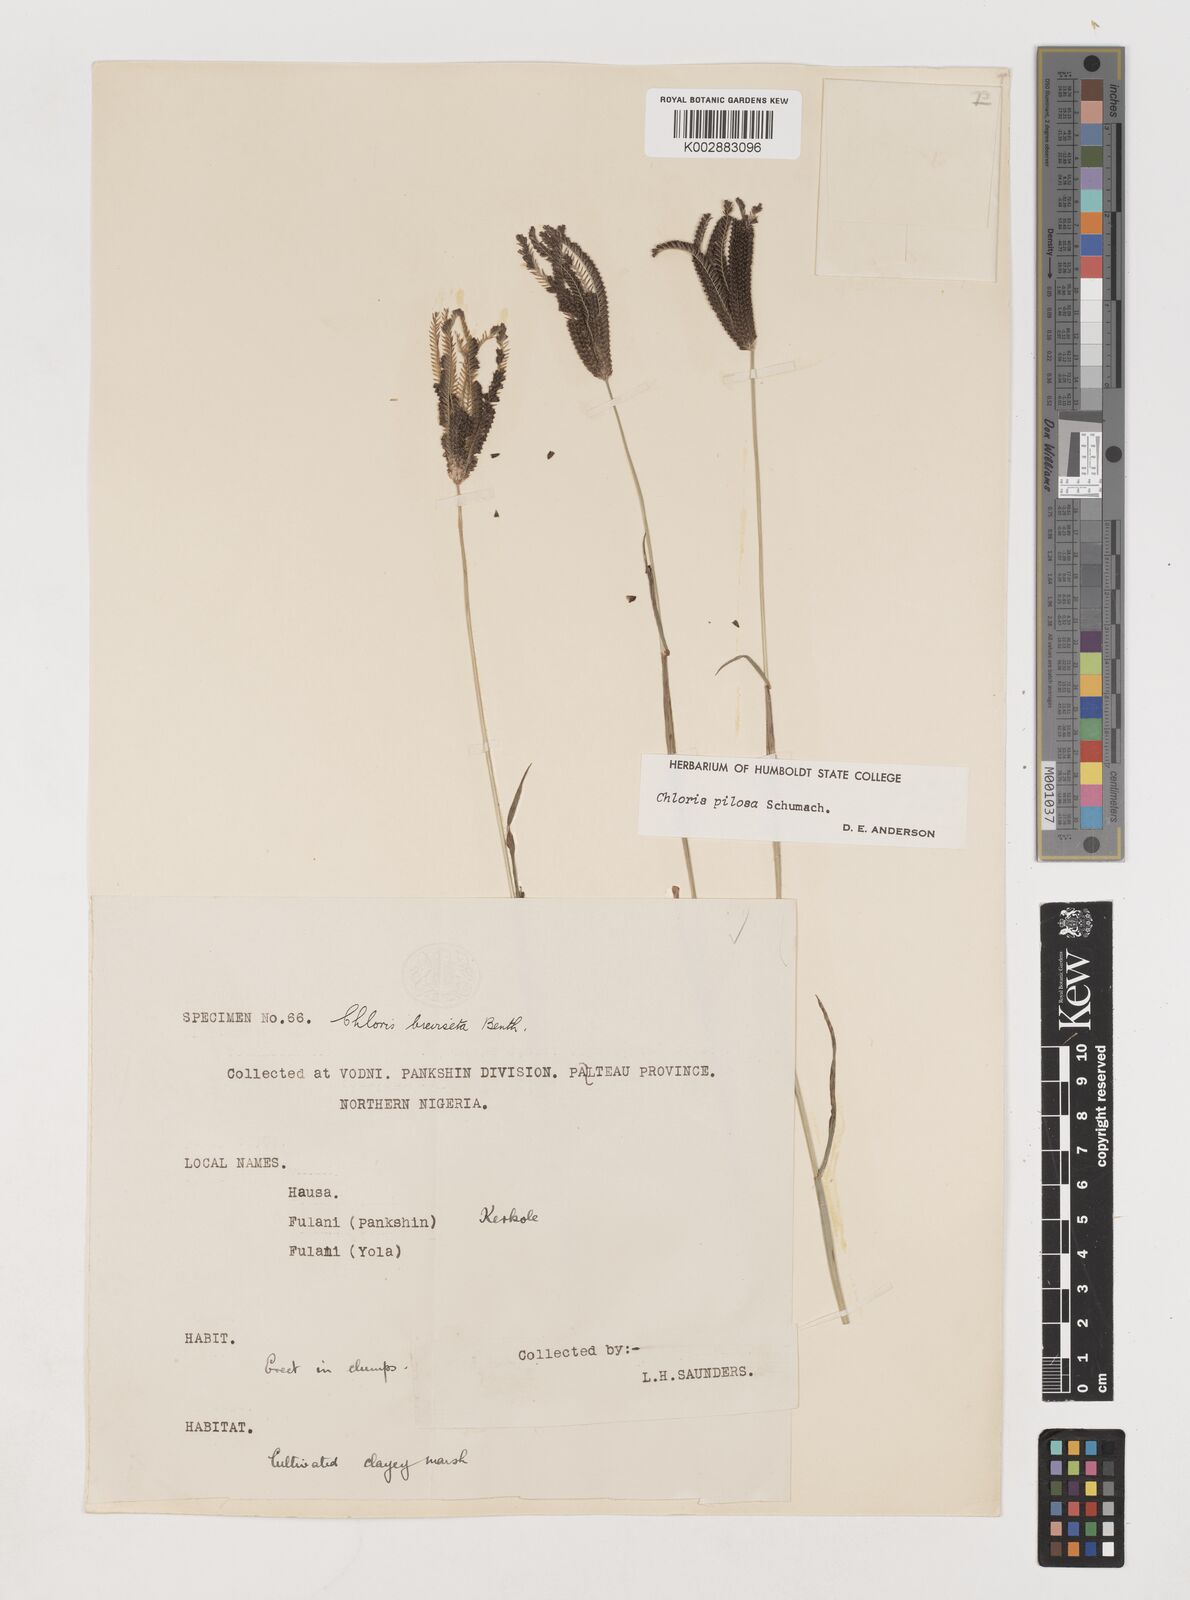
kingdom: Plantae
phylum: Tracheophyta
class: Liliopsida
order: Poales
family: Poaceae
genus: Chloris
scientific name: Chloris pilosa
